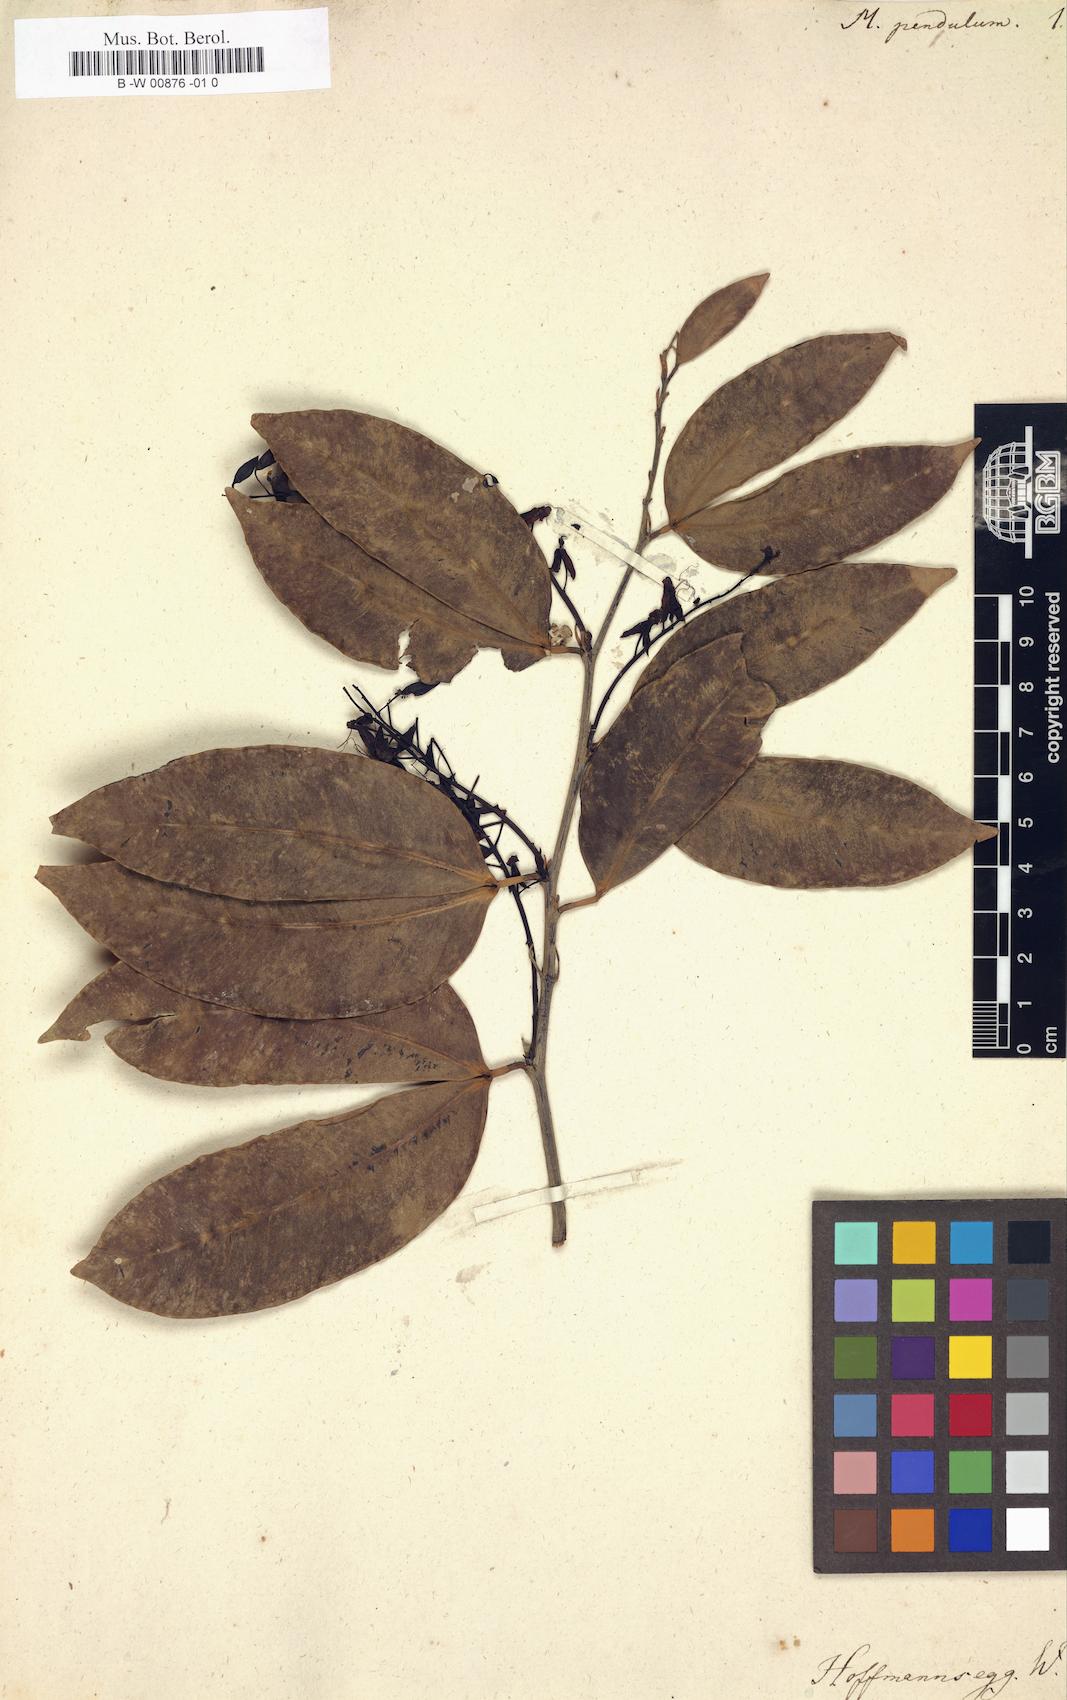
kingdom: Plantae
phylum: Tracheophyta
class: Magnoliopsida
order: Fabales
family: Fabaceae
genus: Macrolobium
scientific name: Macrolobium pendulum
